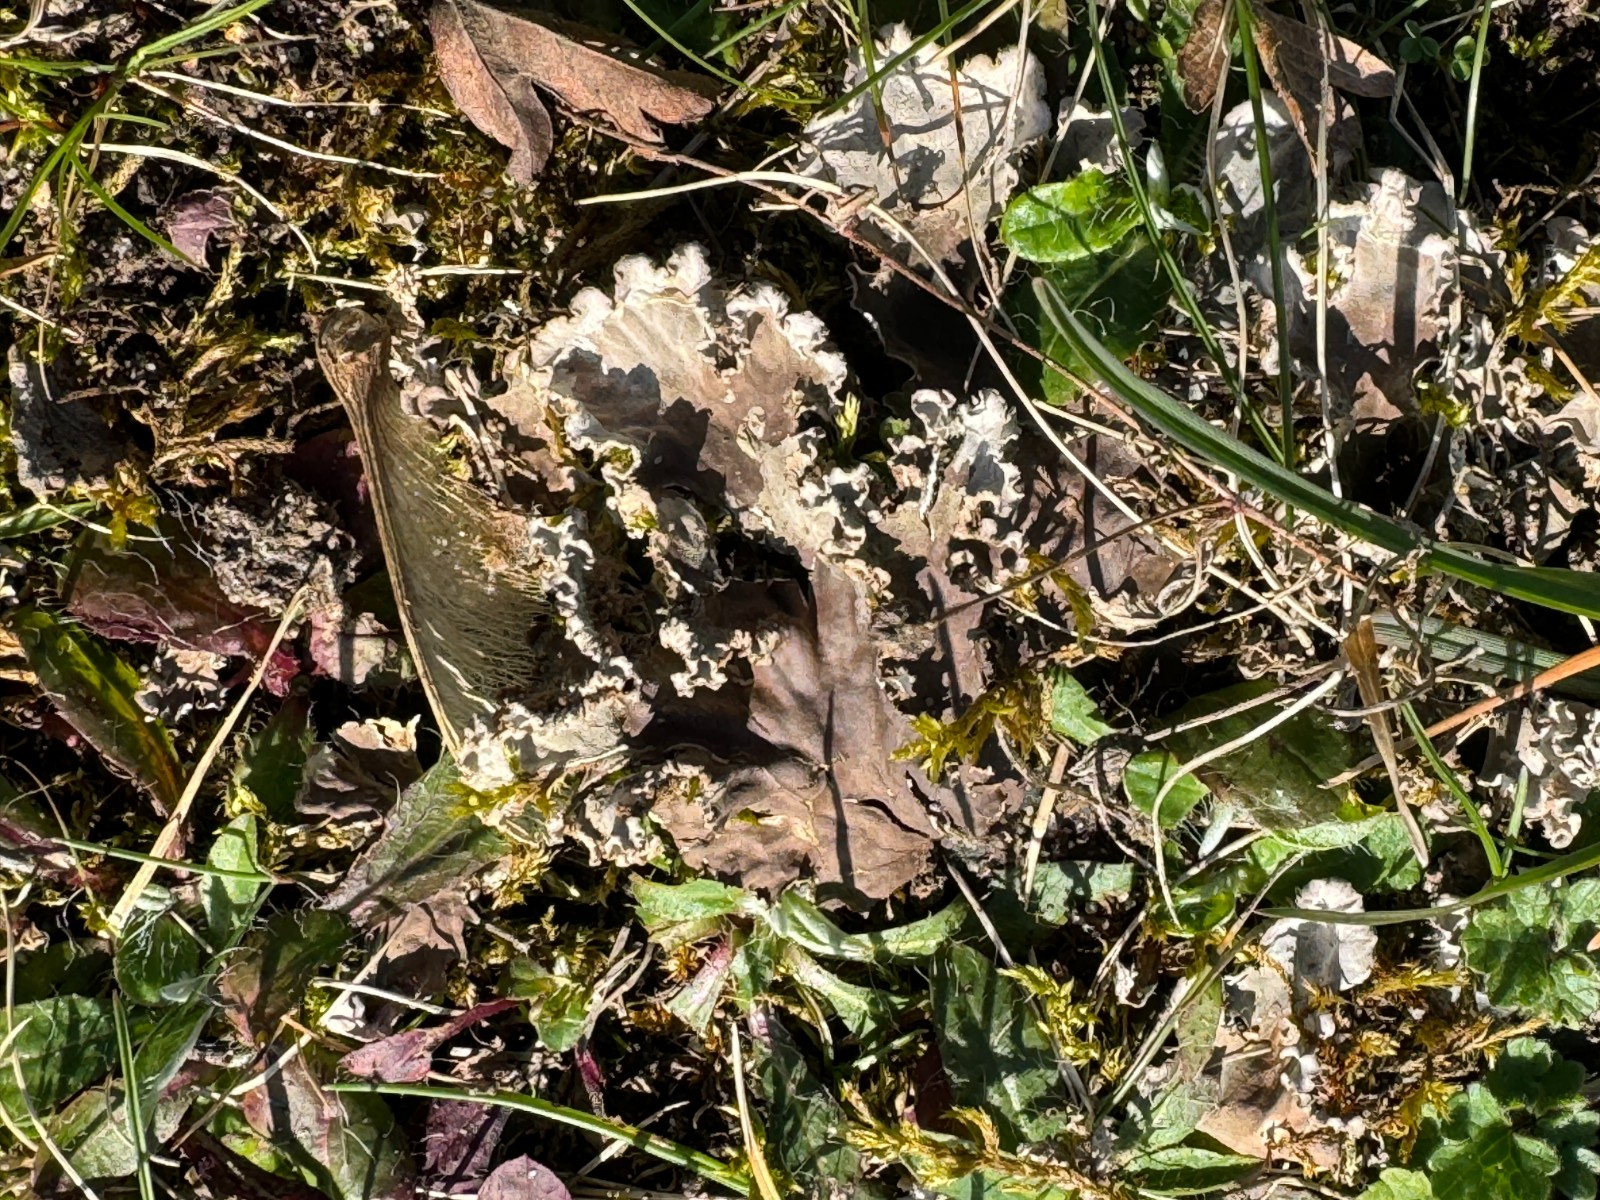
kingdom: Fungi
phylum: Ascomycota
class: Lecanoromycetes
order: Peltigerales
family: Peltigeraceae
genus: Peltigera
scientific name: Peltigera
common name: skjoldlav
